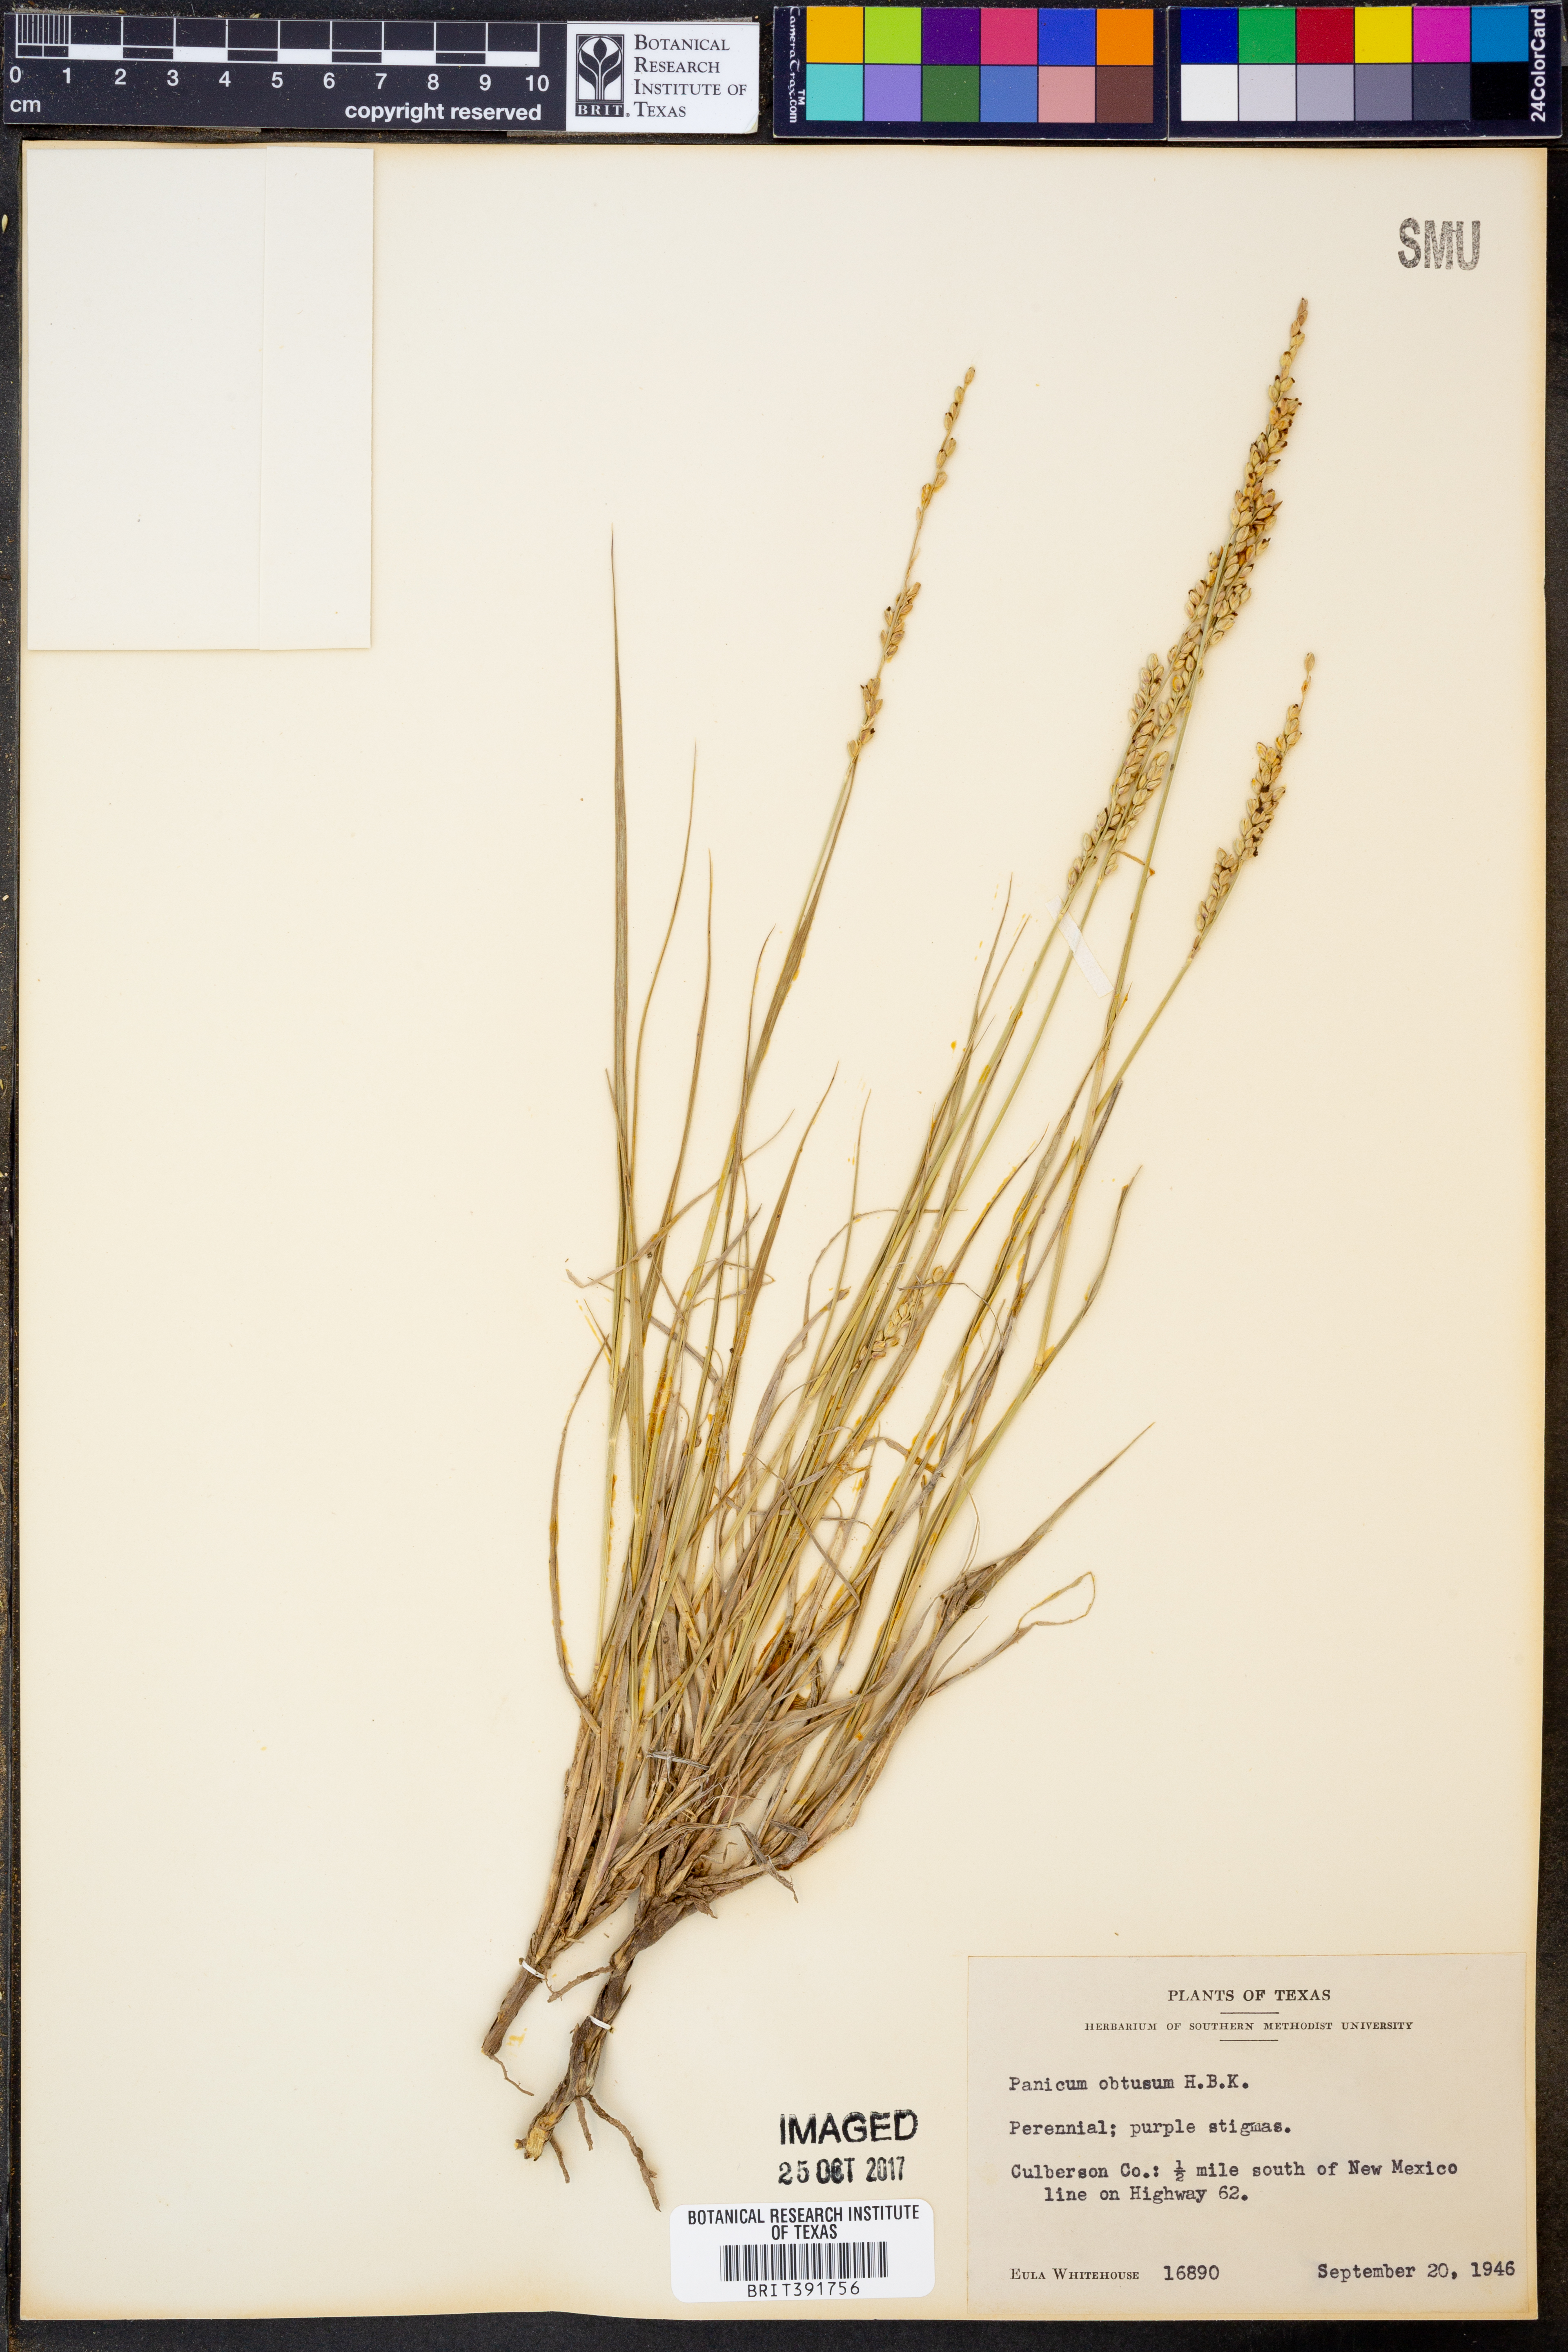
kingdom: Plantae
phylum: Tracheophyta
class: Liliopsida
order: Poales
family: Poaceae
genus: Hopia
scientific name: Hopia obtusa
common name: Vine-mesquite
